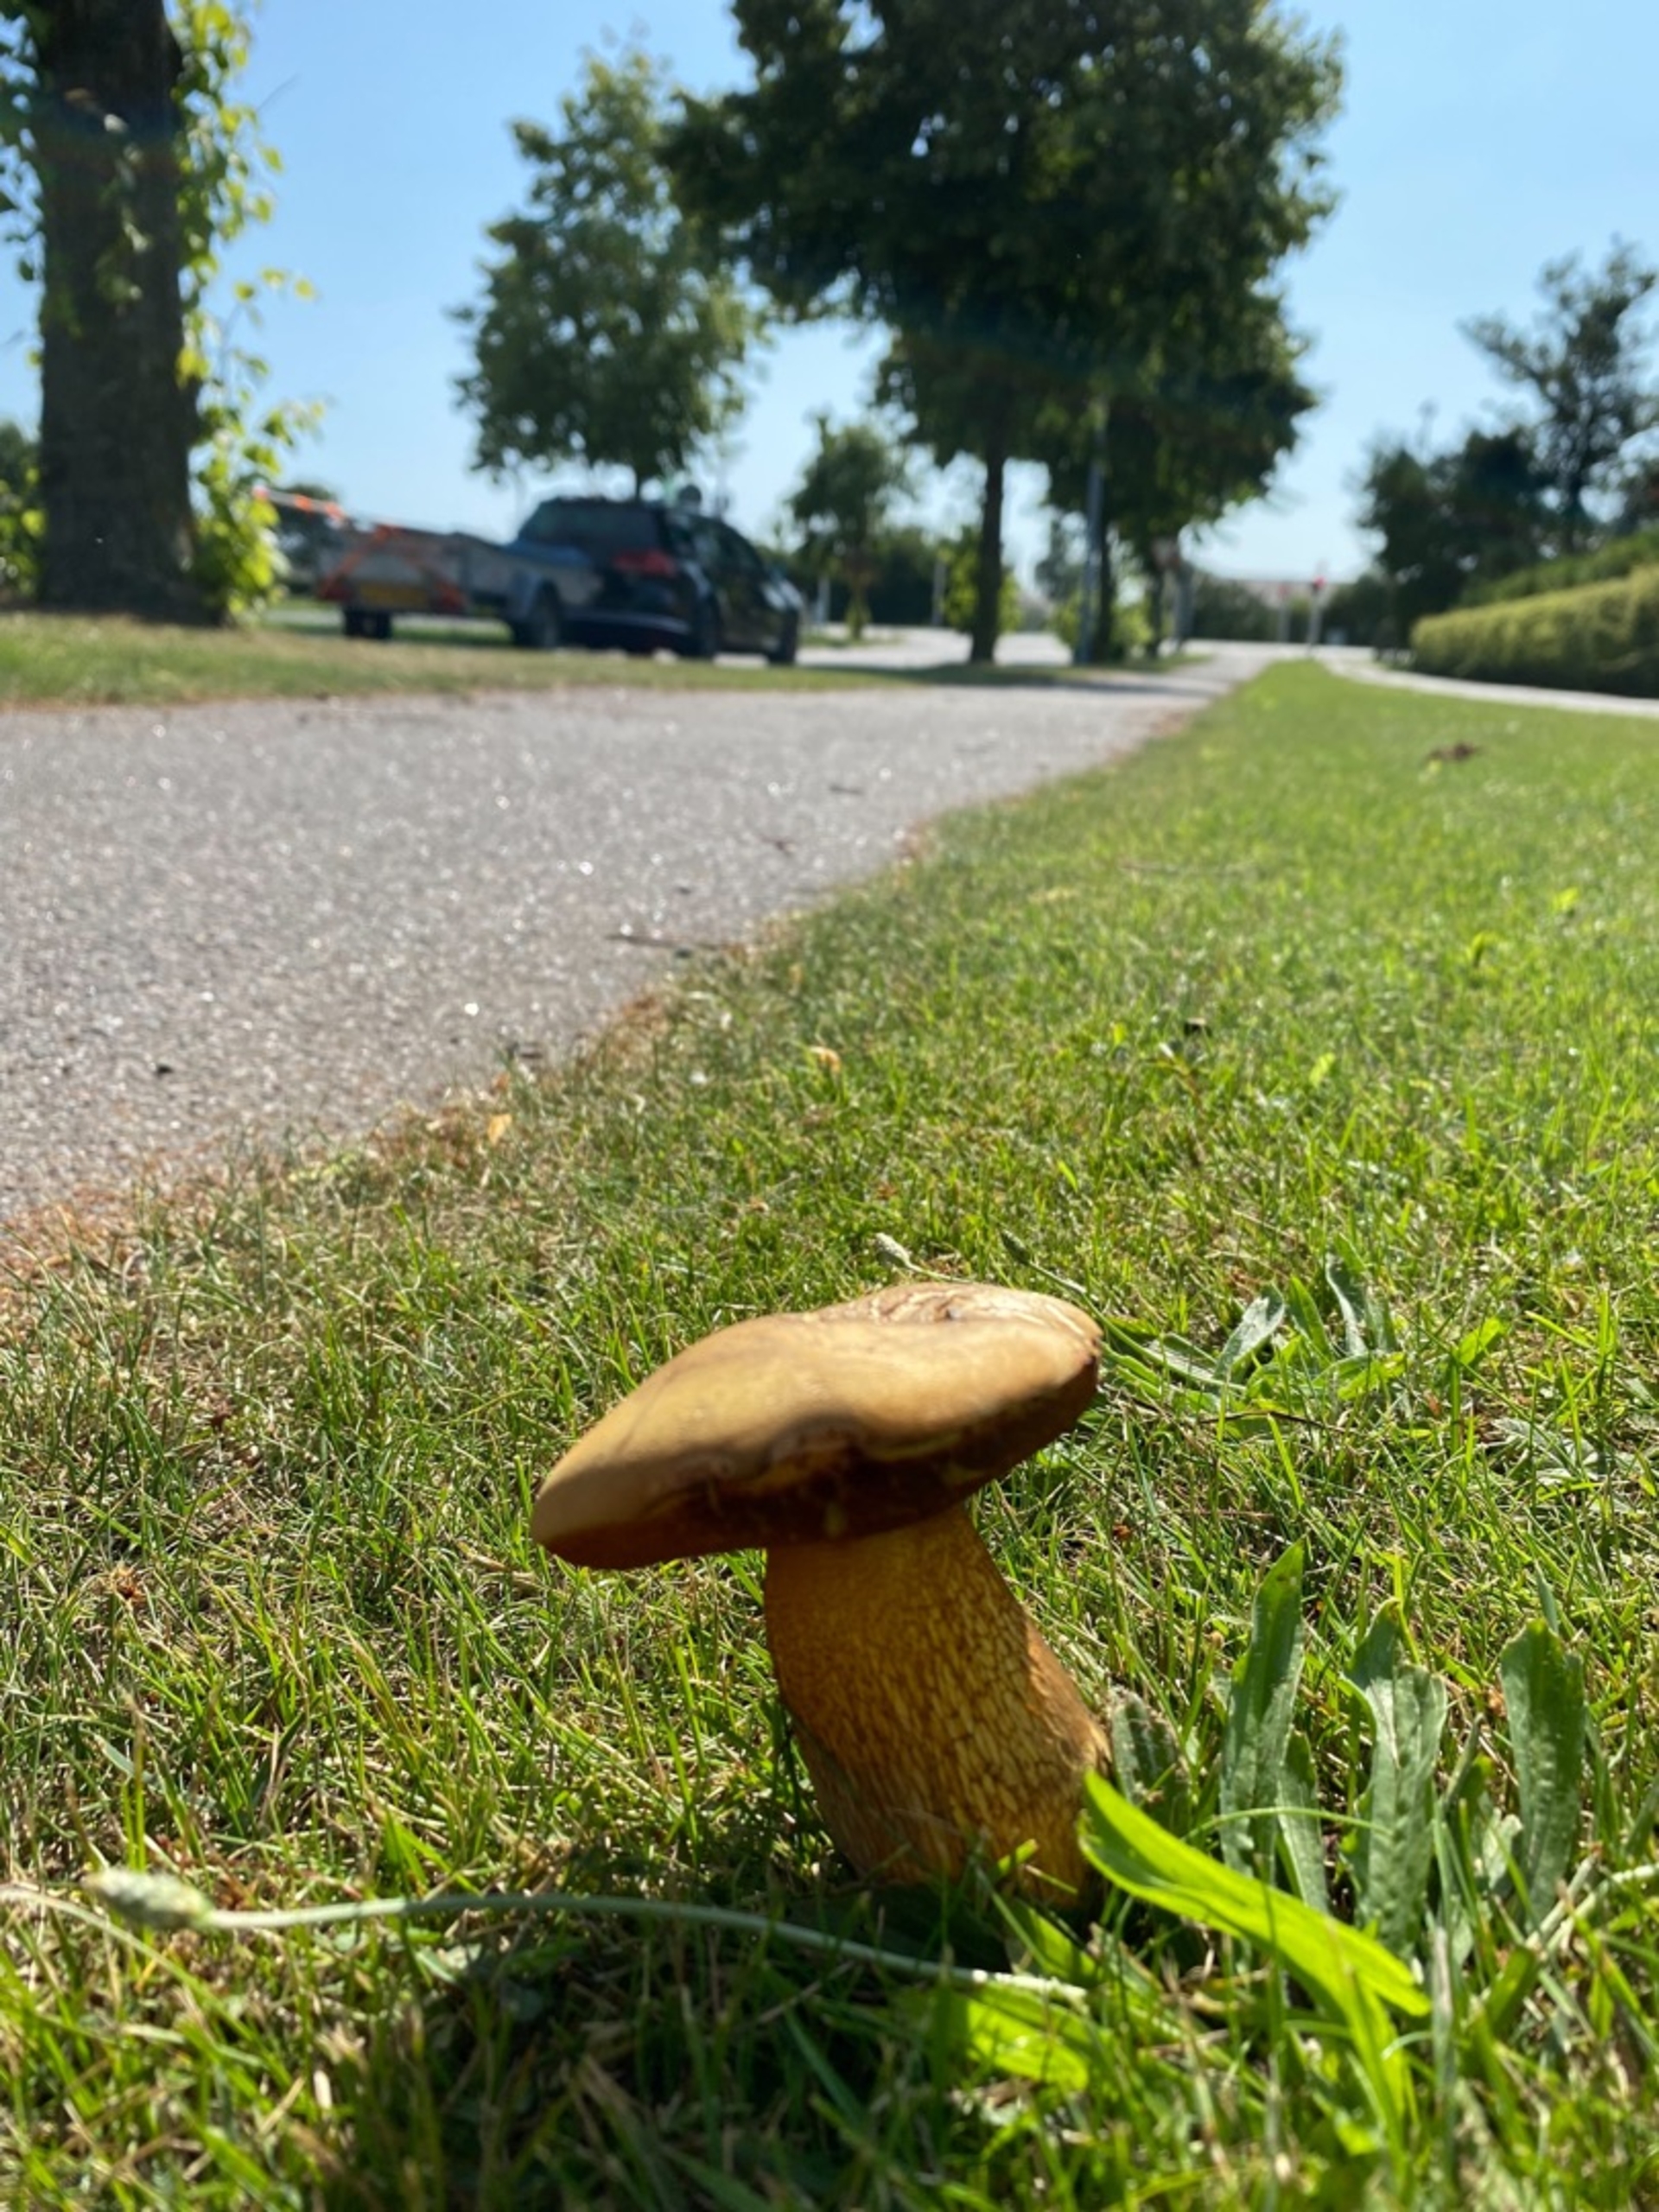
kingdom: Fungi
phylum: Basidiomycota
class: Agaricomycetes
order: Boletales
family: Boletaceae
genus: Suillellus
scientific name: Suillellus luridus
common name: Netstokket indigorørhat
